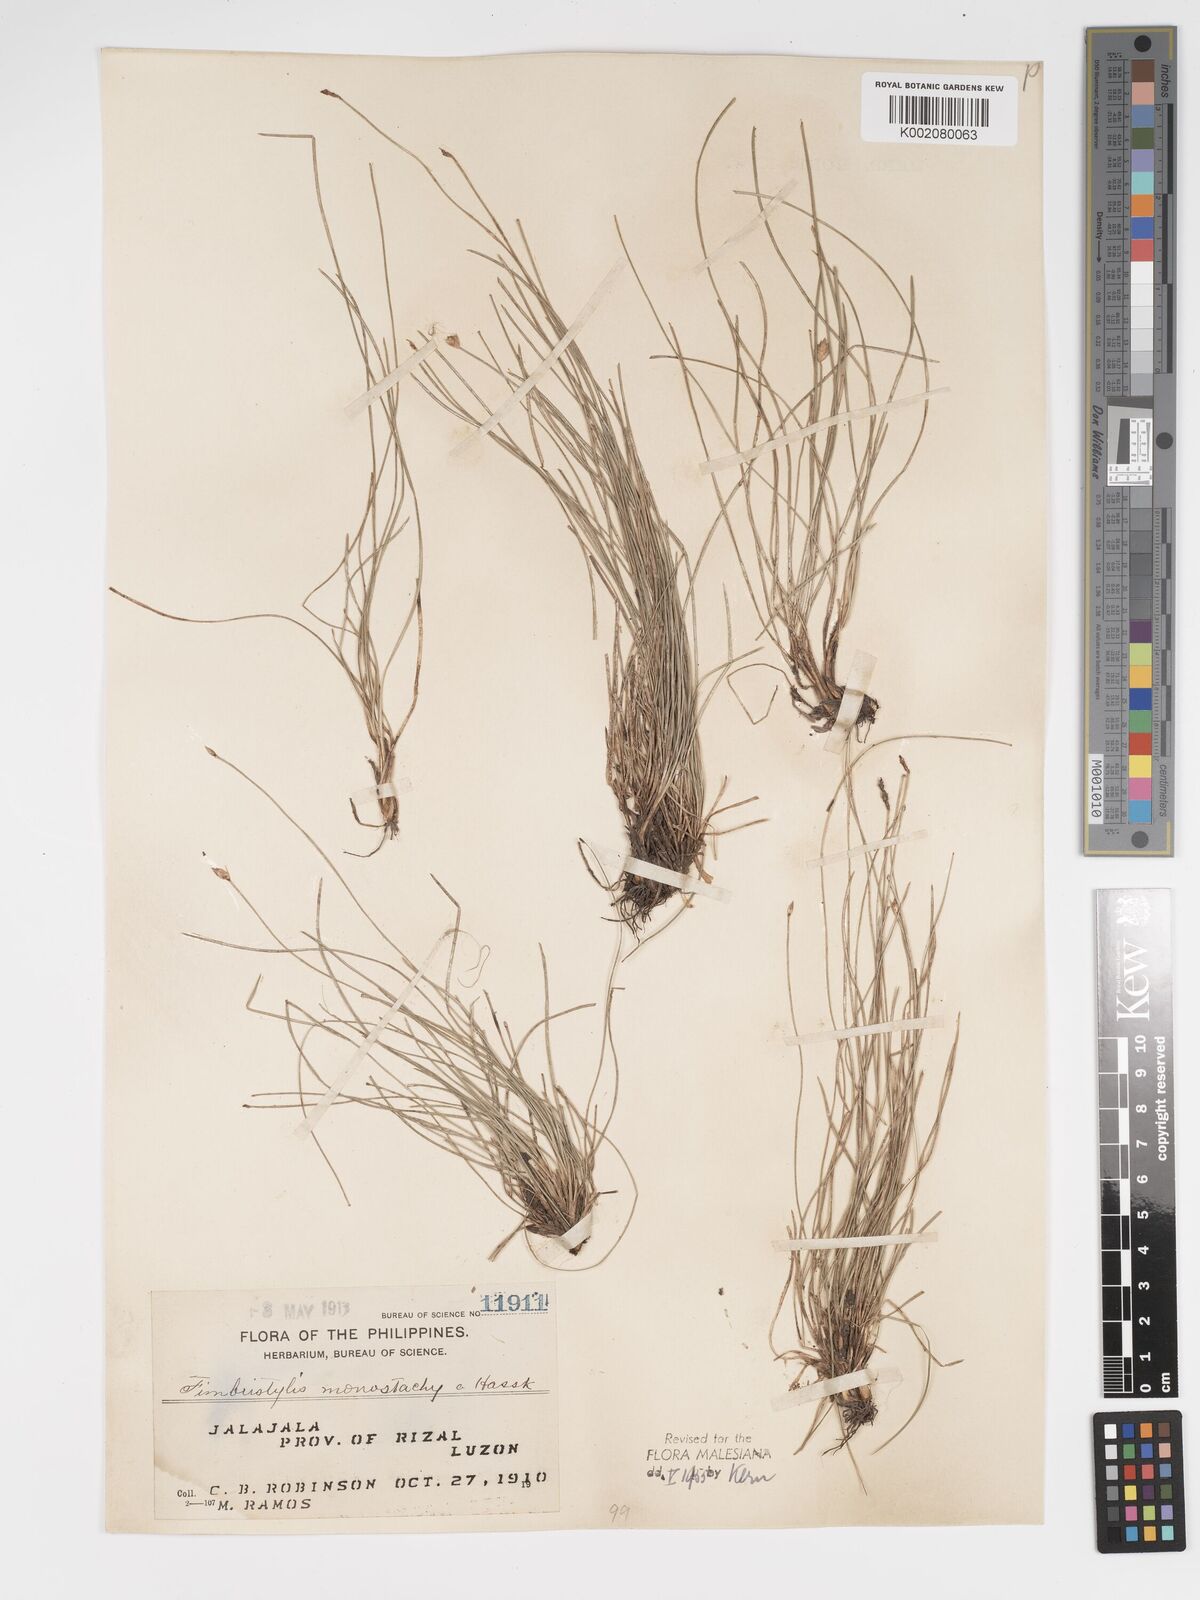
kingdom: Plantae
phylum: Tracheophyta
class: Liliopsida
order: Poales
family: Cyperaceae
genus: Abildgaardia
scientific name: Abildgaardia ovata
